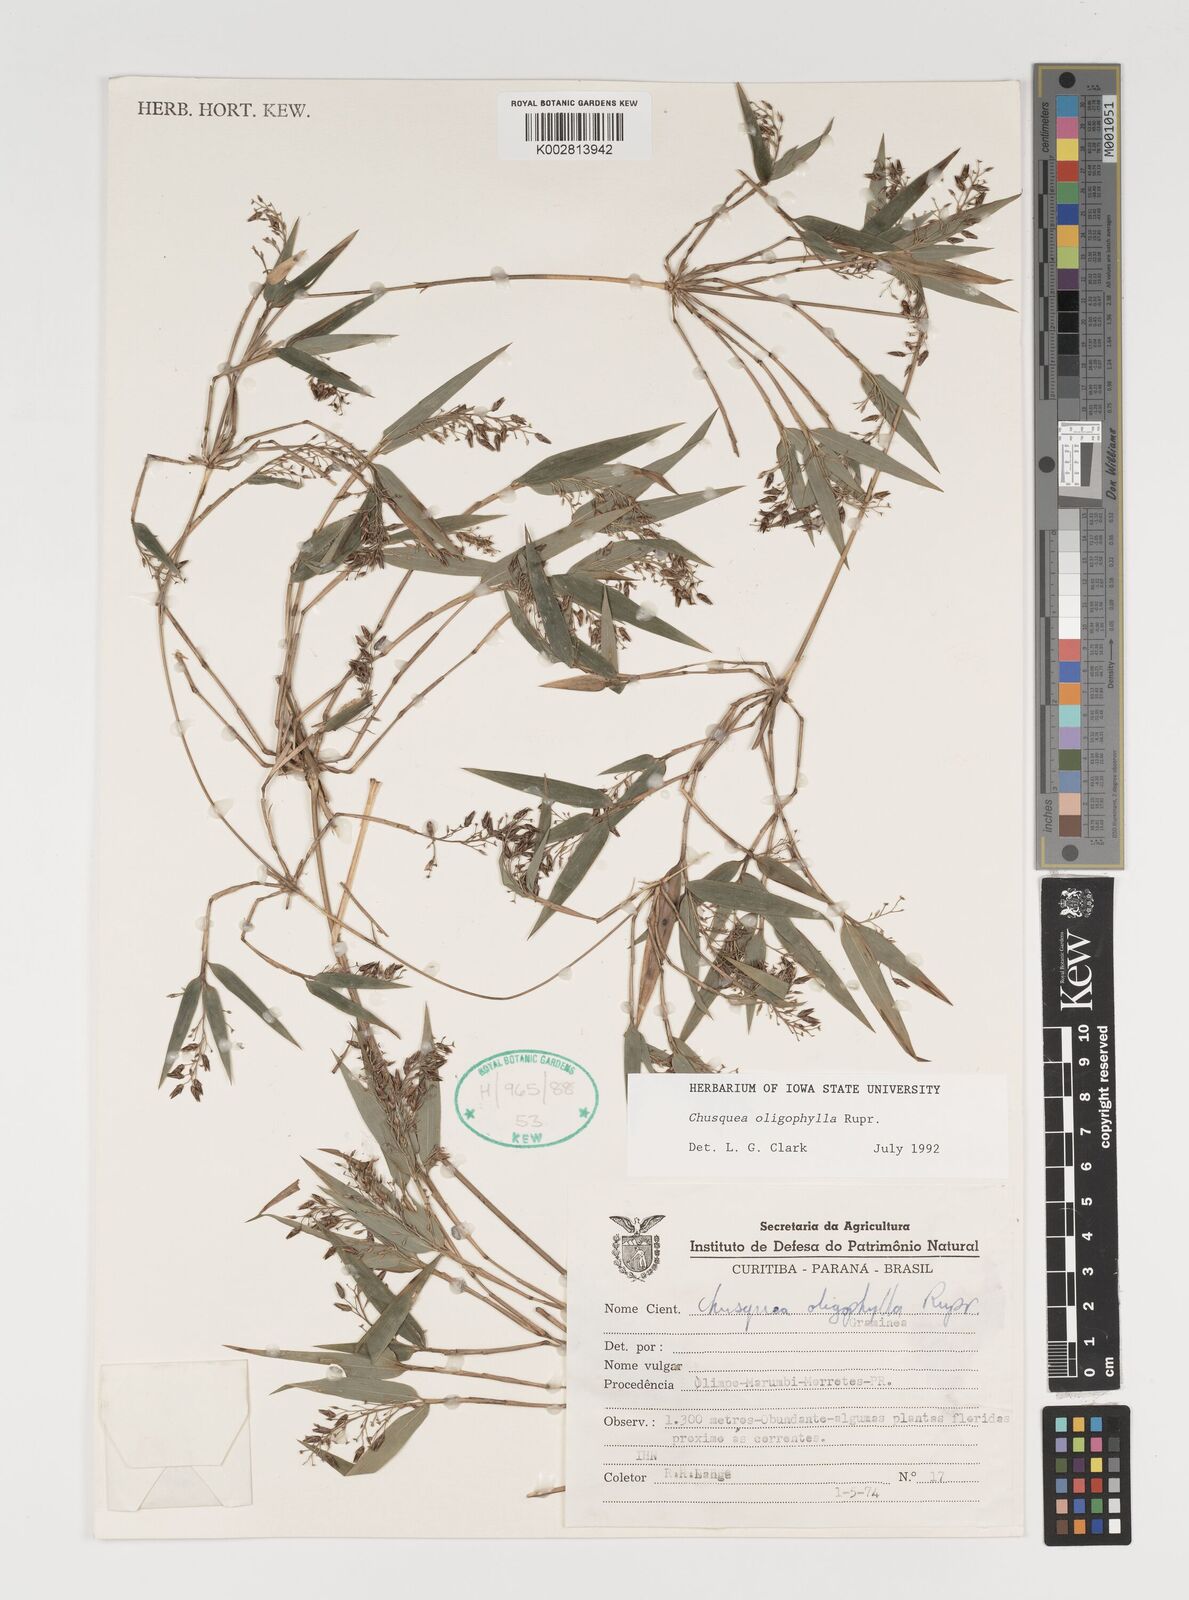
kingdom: Plantae
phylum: Tracheophyta
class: Liliopsida
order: Poales
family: Poaceae
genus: Chusquea
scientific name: Chusquea oligophylla
